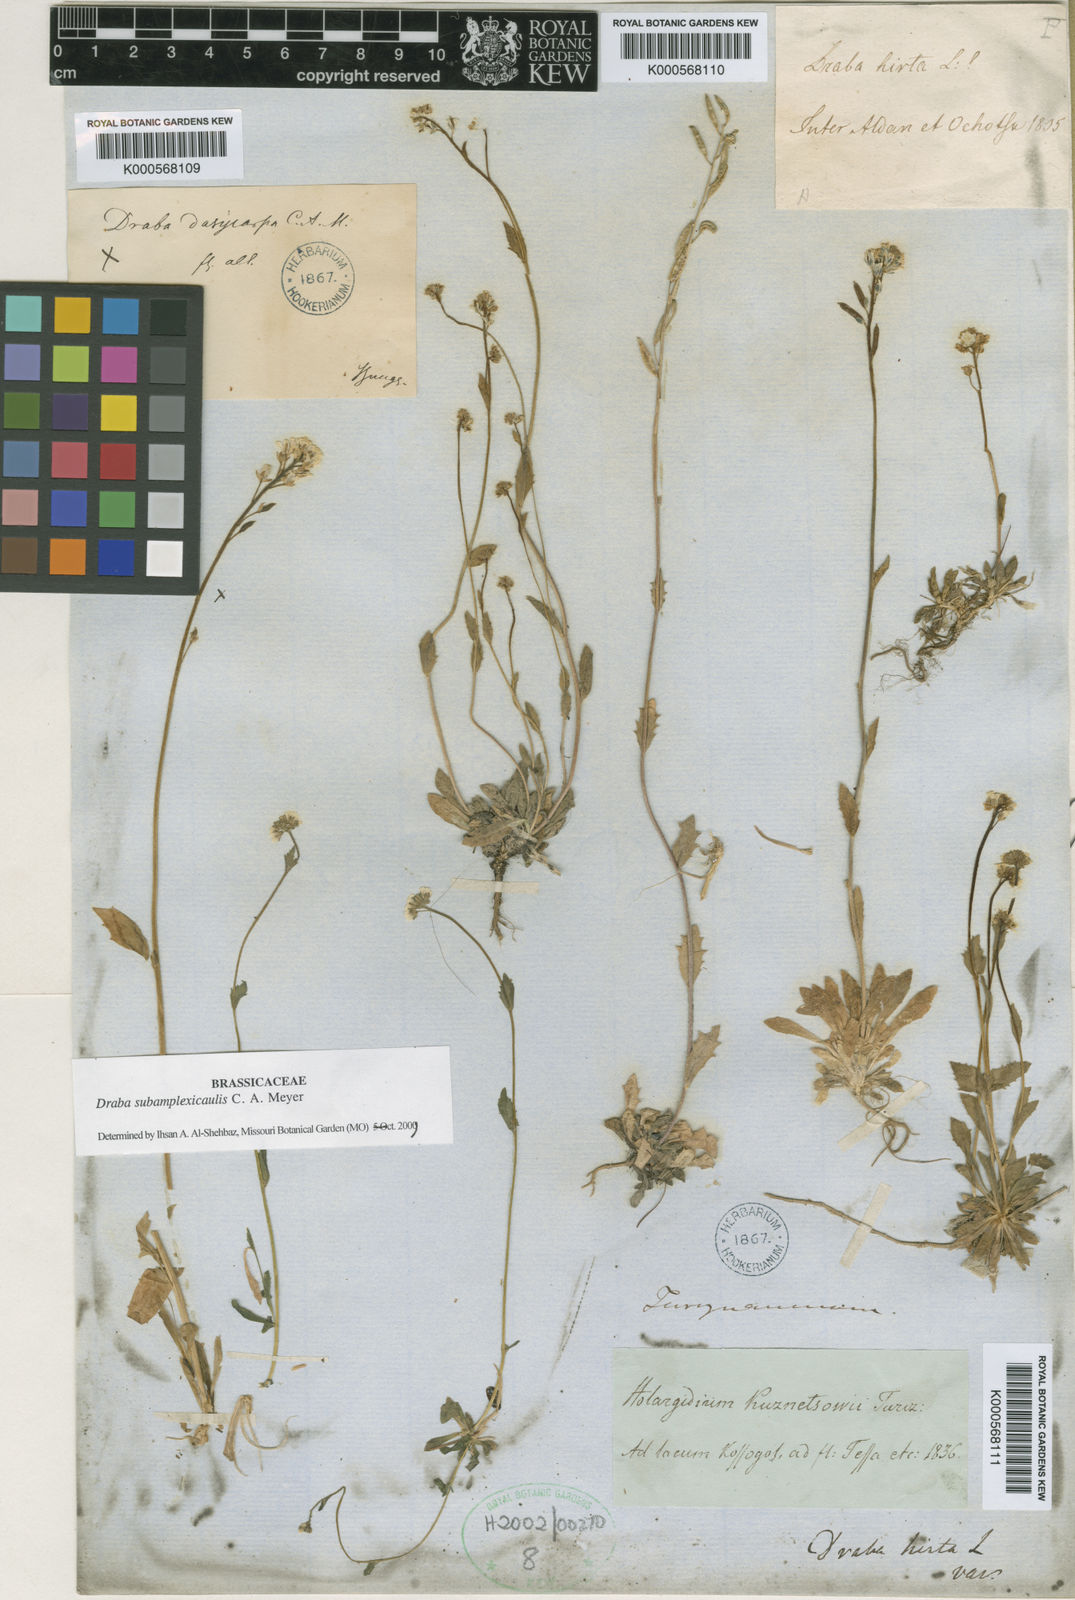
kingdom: Plantae
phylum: Tracheophyta
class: Magnoliopsida
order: Brassicales
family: Brassicaceae
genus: Draba
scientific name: Draba subamplexicaulis
